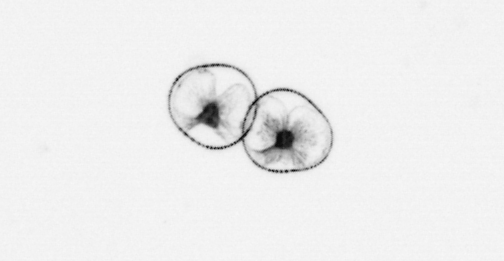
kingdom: Chromista
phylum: Myzozoa
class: Dinophyceae
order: Noctilucales
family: Noctilucaceae
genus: Noctiluca
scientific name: Noctiluca scintillans
